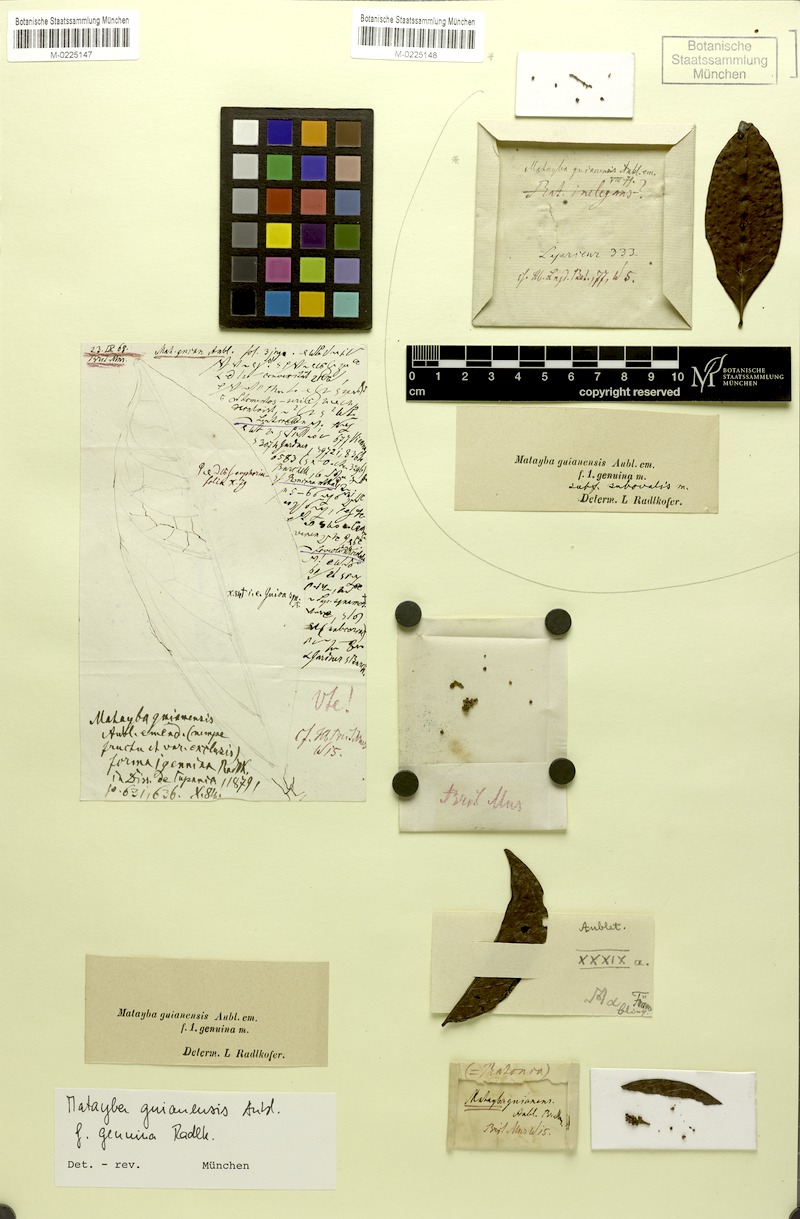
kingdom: Plantae
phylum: Tracheophyta
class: Magnoliopsida
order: Sapindales
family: Sapindaceae
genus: Matayba
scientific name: Matayba guianensis
